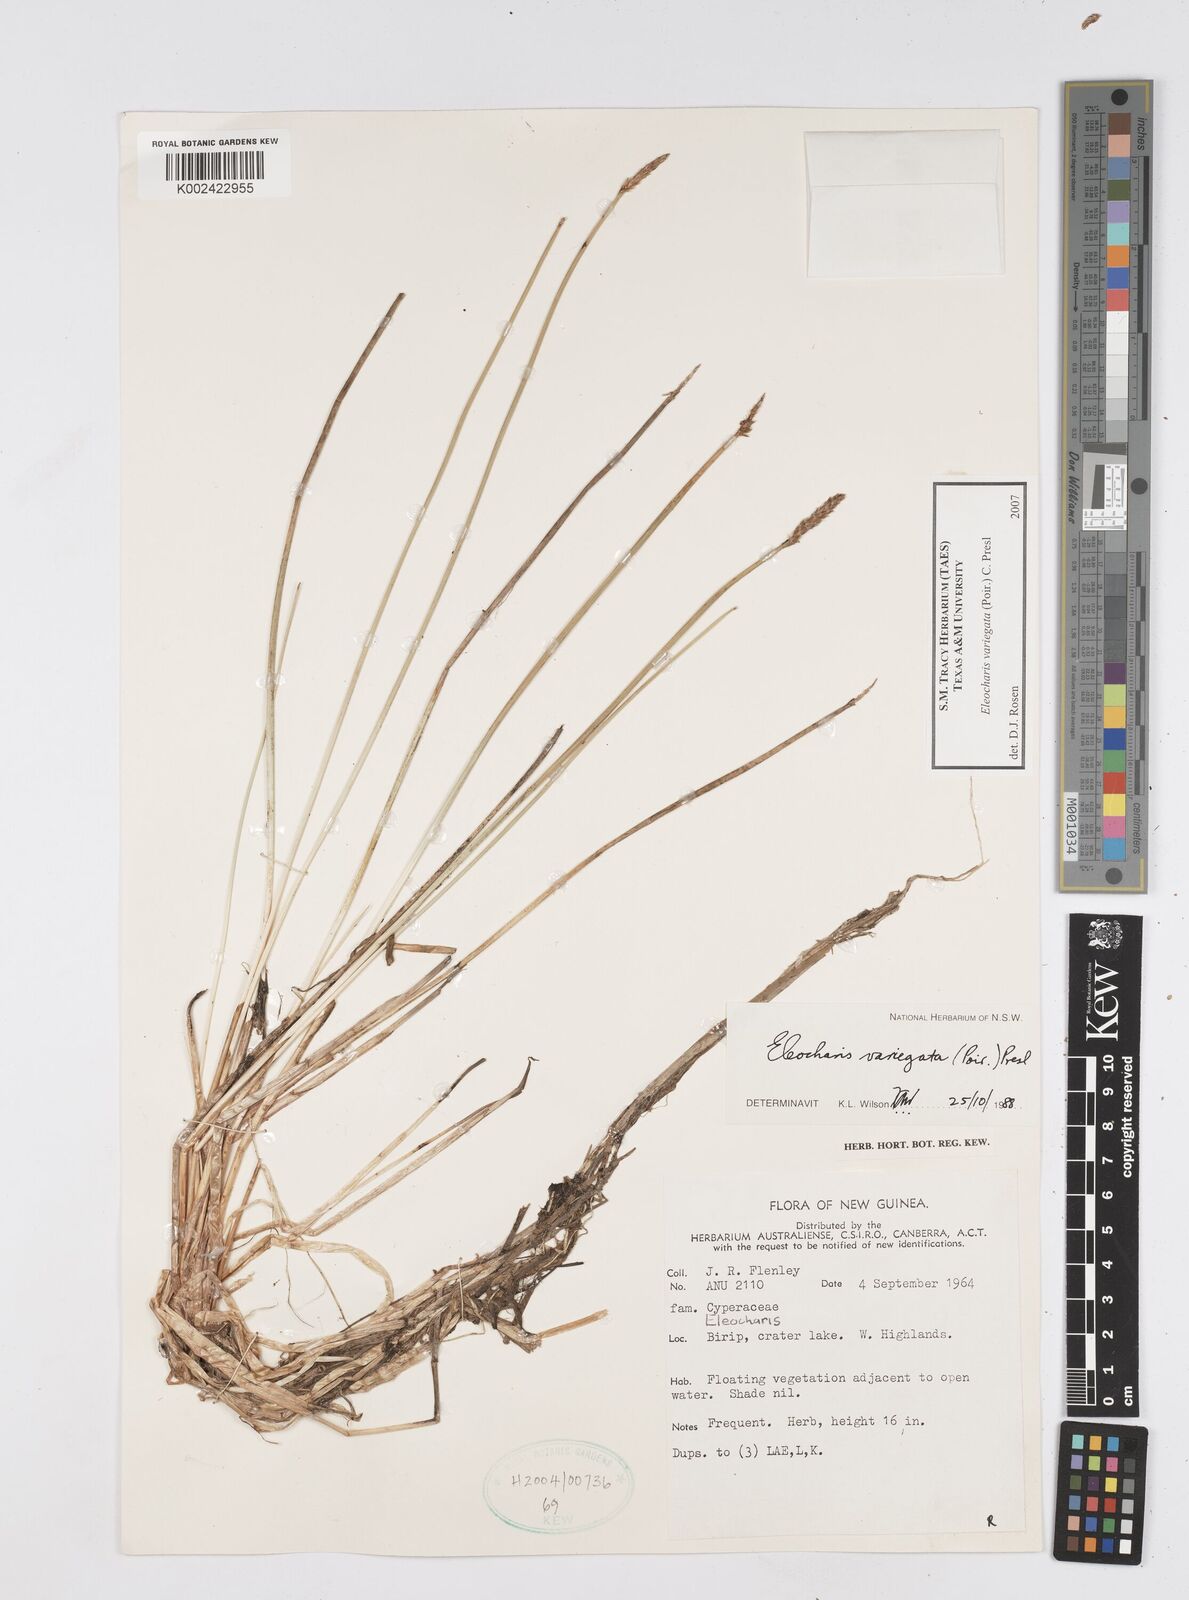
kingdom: Plantae
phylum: Tracheophyta
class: Liliopsida
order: Poales
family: Cyperaceae
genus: Eleocharis
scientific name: Eleocharis variegata
